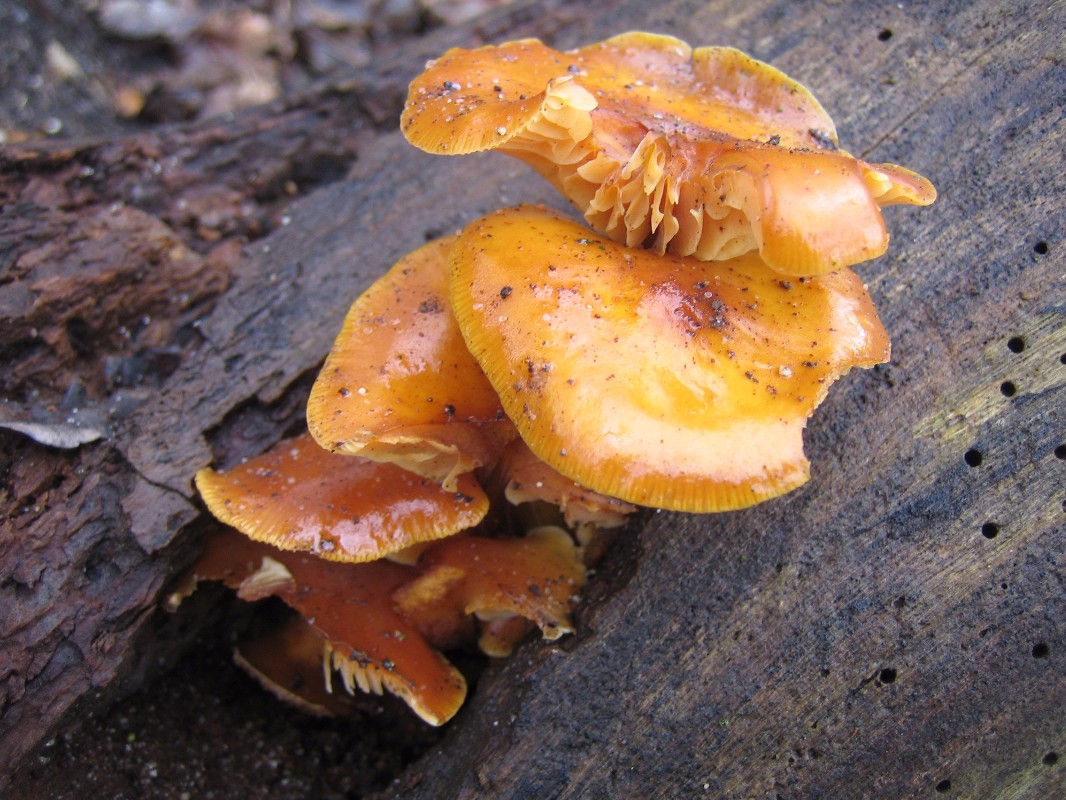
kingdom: Fungi
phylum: Basidiomycota
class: Agaricomycetes
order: Agaricales
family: Physalacriaceae
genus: Flammulina
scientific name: Flammulina velutipes
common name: gul fløjlsfod
